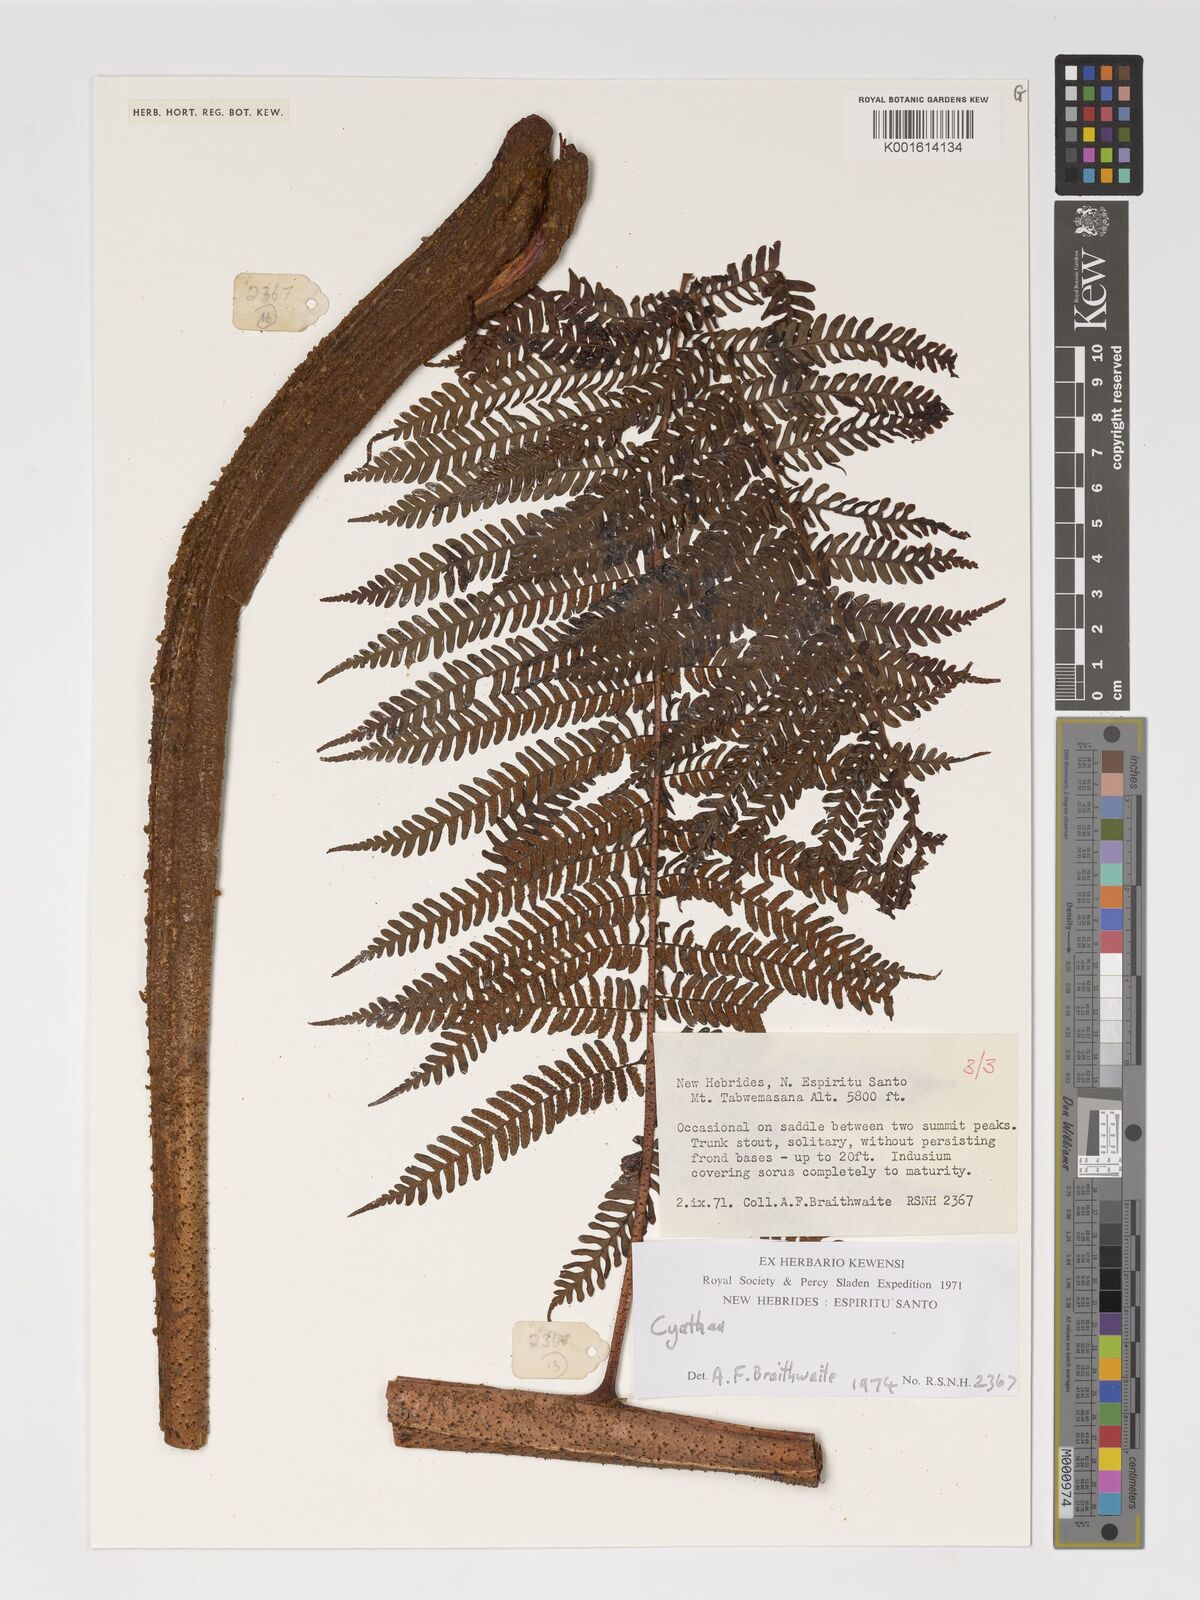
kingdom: Plantae
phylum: Tracheophyta
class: Polypodiopsida
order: Cyatheales
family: Cyatheaceae
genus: Cyathea
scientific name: Cyathea
